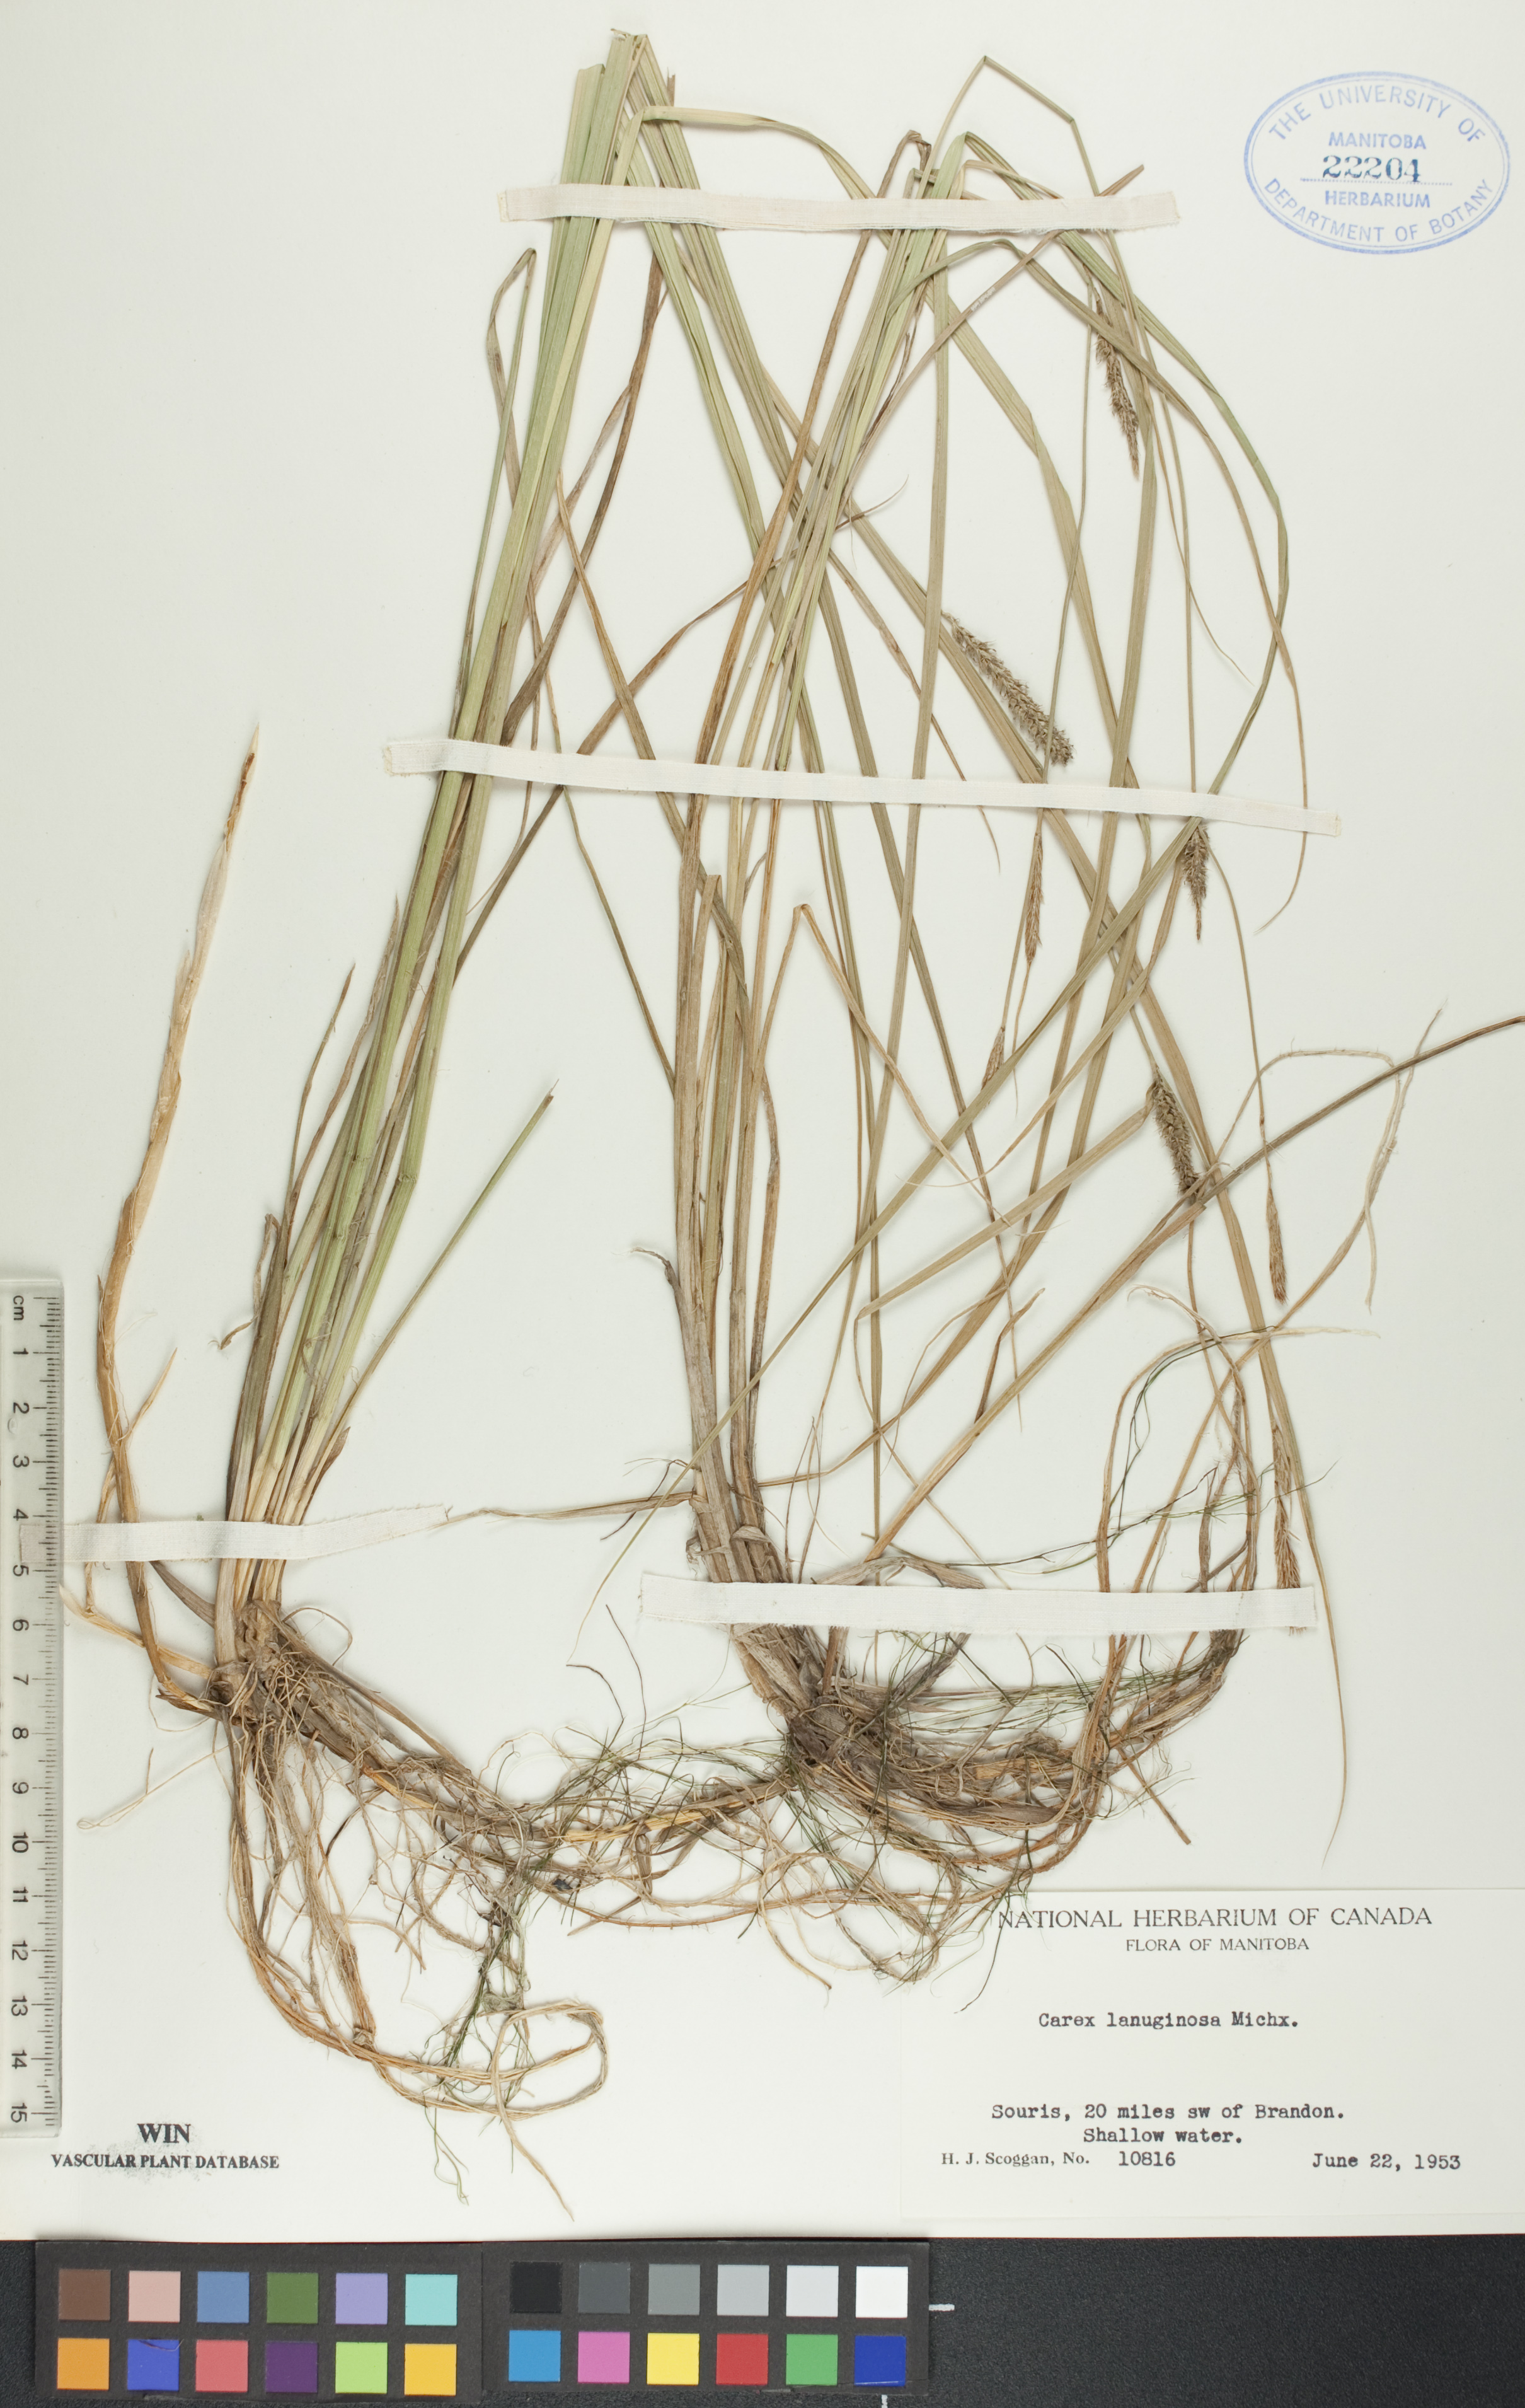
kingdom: Plantae
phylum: Tracheophyta
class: Liliopsida
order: Poales
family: Cyperaceae
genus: Carex
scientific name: Carex lasiocarpa
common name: Slender sedge
